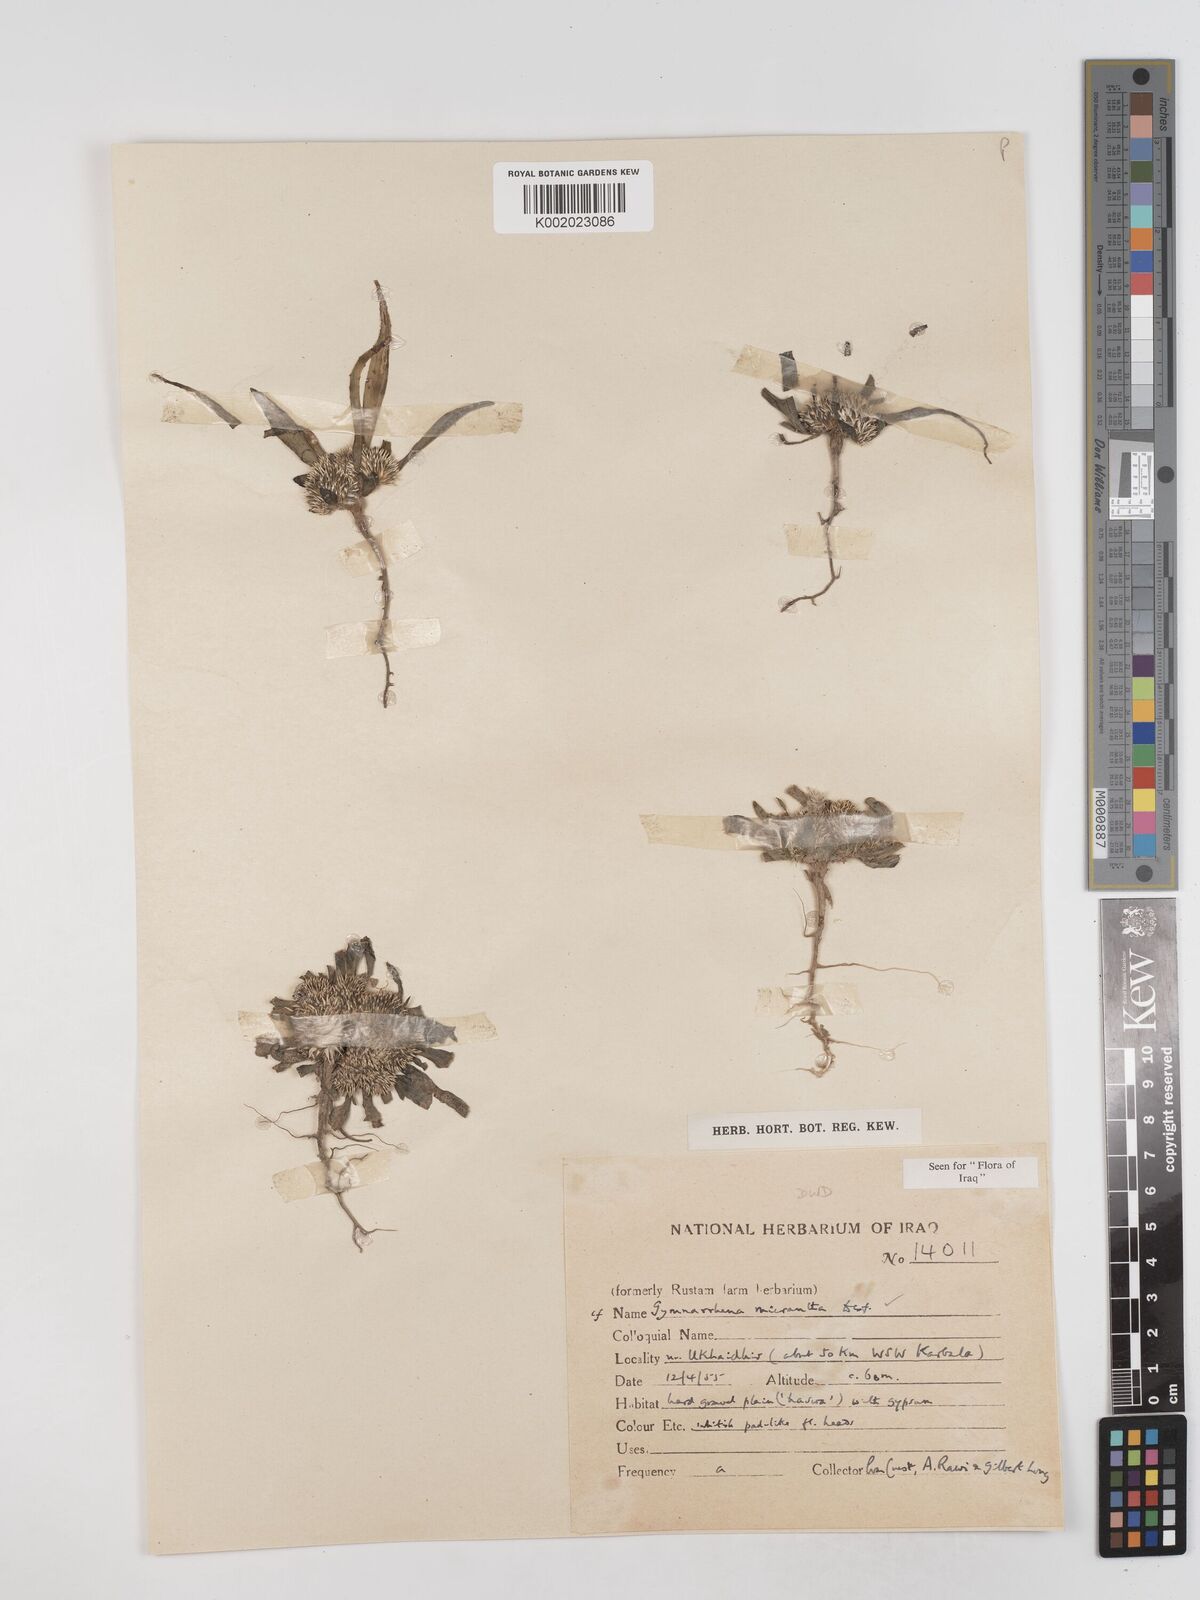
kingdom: Plantae
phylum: Tracheophyta
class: Magnoliopsida
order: Asterales
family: Asteraceae
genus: Gymnarrhena
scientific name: Gymnarrhena micrantha
